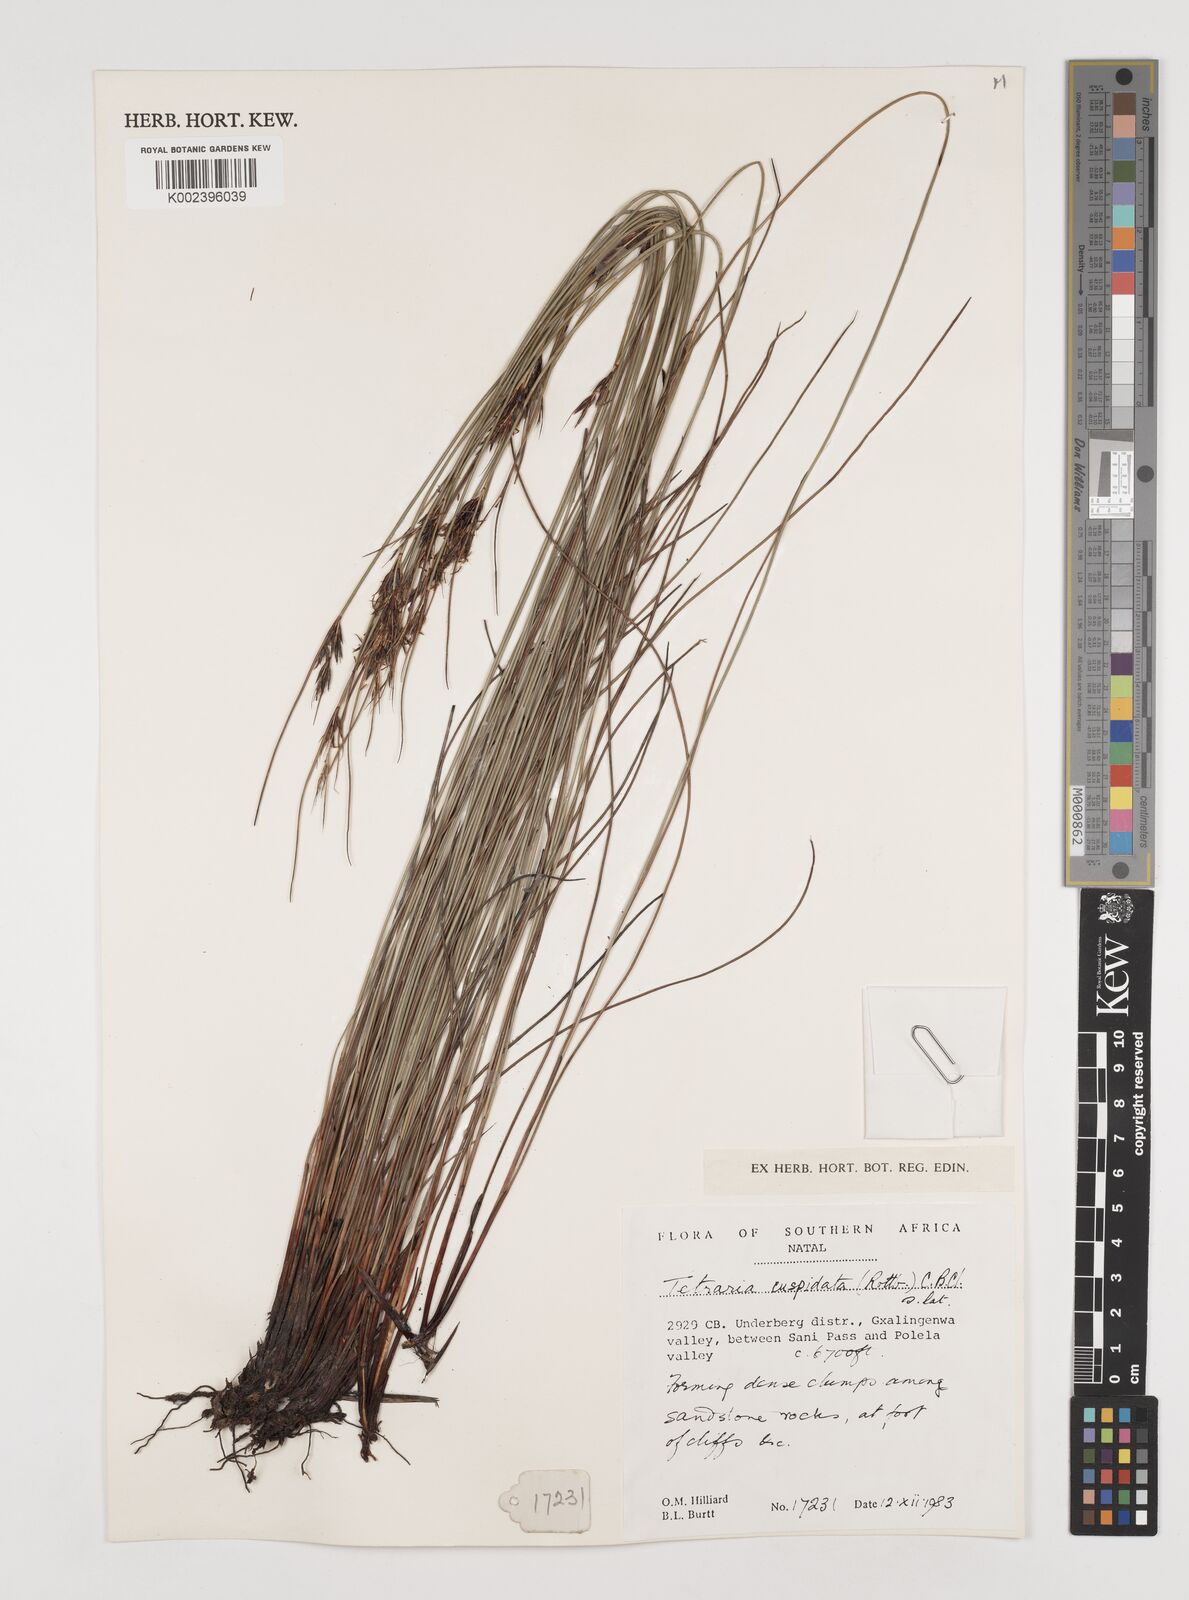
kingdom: Plantae
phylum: Tracheophyta
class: Liliopsida
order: Poales
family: Cyperaceae
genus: Schoenus
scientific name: Schoenus cuspidatus
